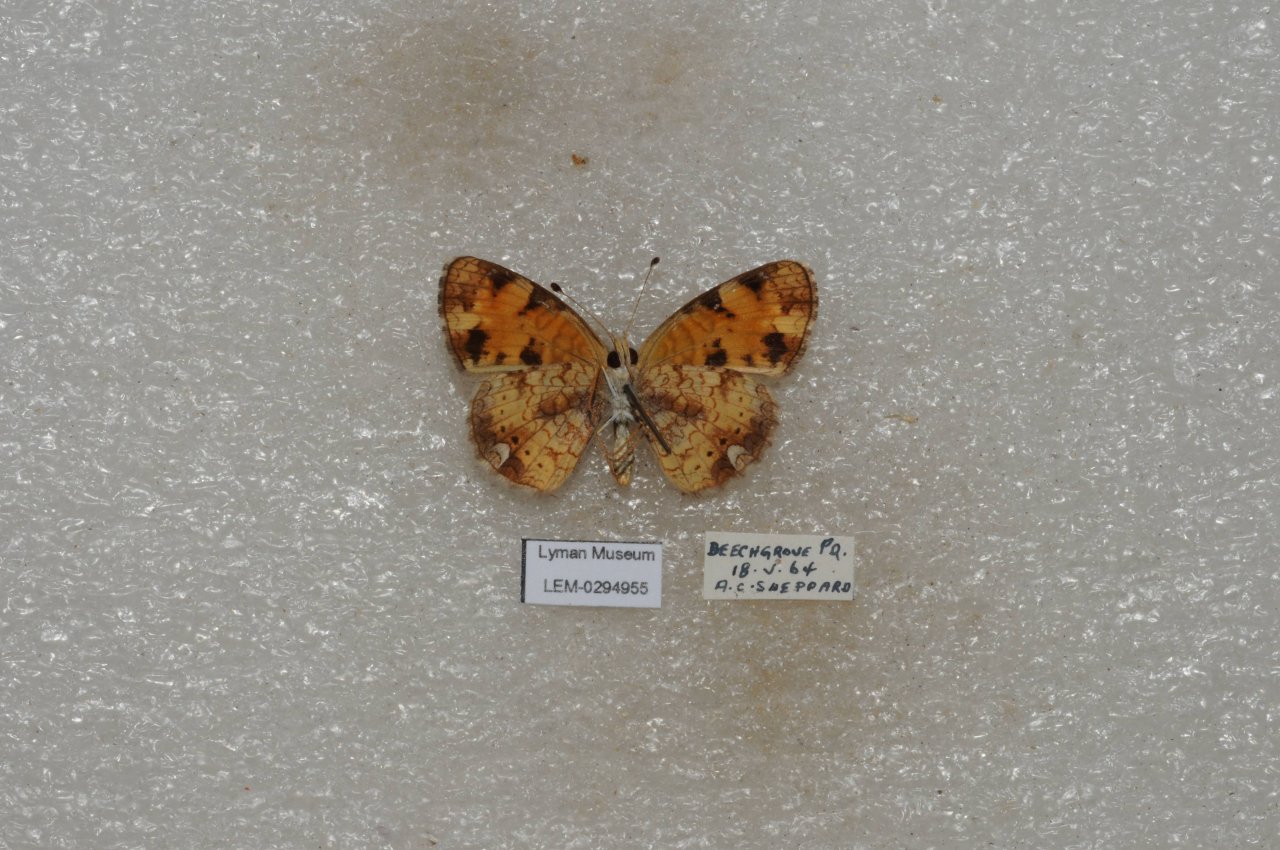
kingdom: Animalia
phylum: Arthropoda
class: Insecta
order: Lepidoptera
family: Nymphalidae
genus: Phyciodes
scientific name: Phyciodes tharos
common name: Northern Crescent
